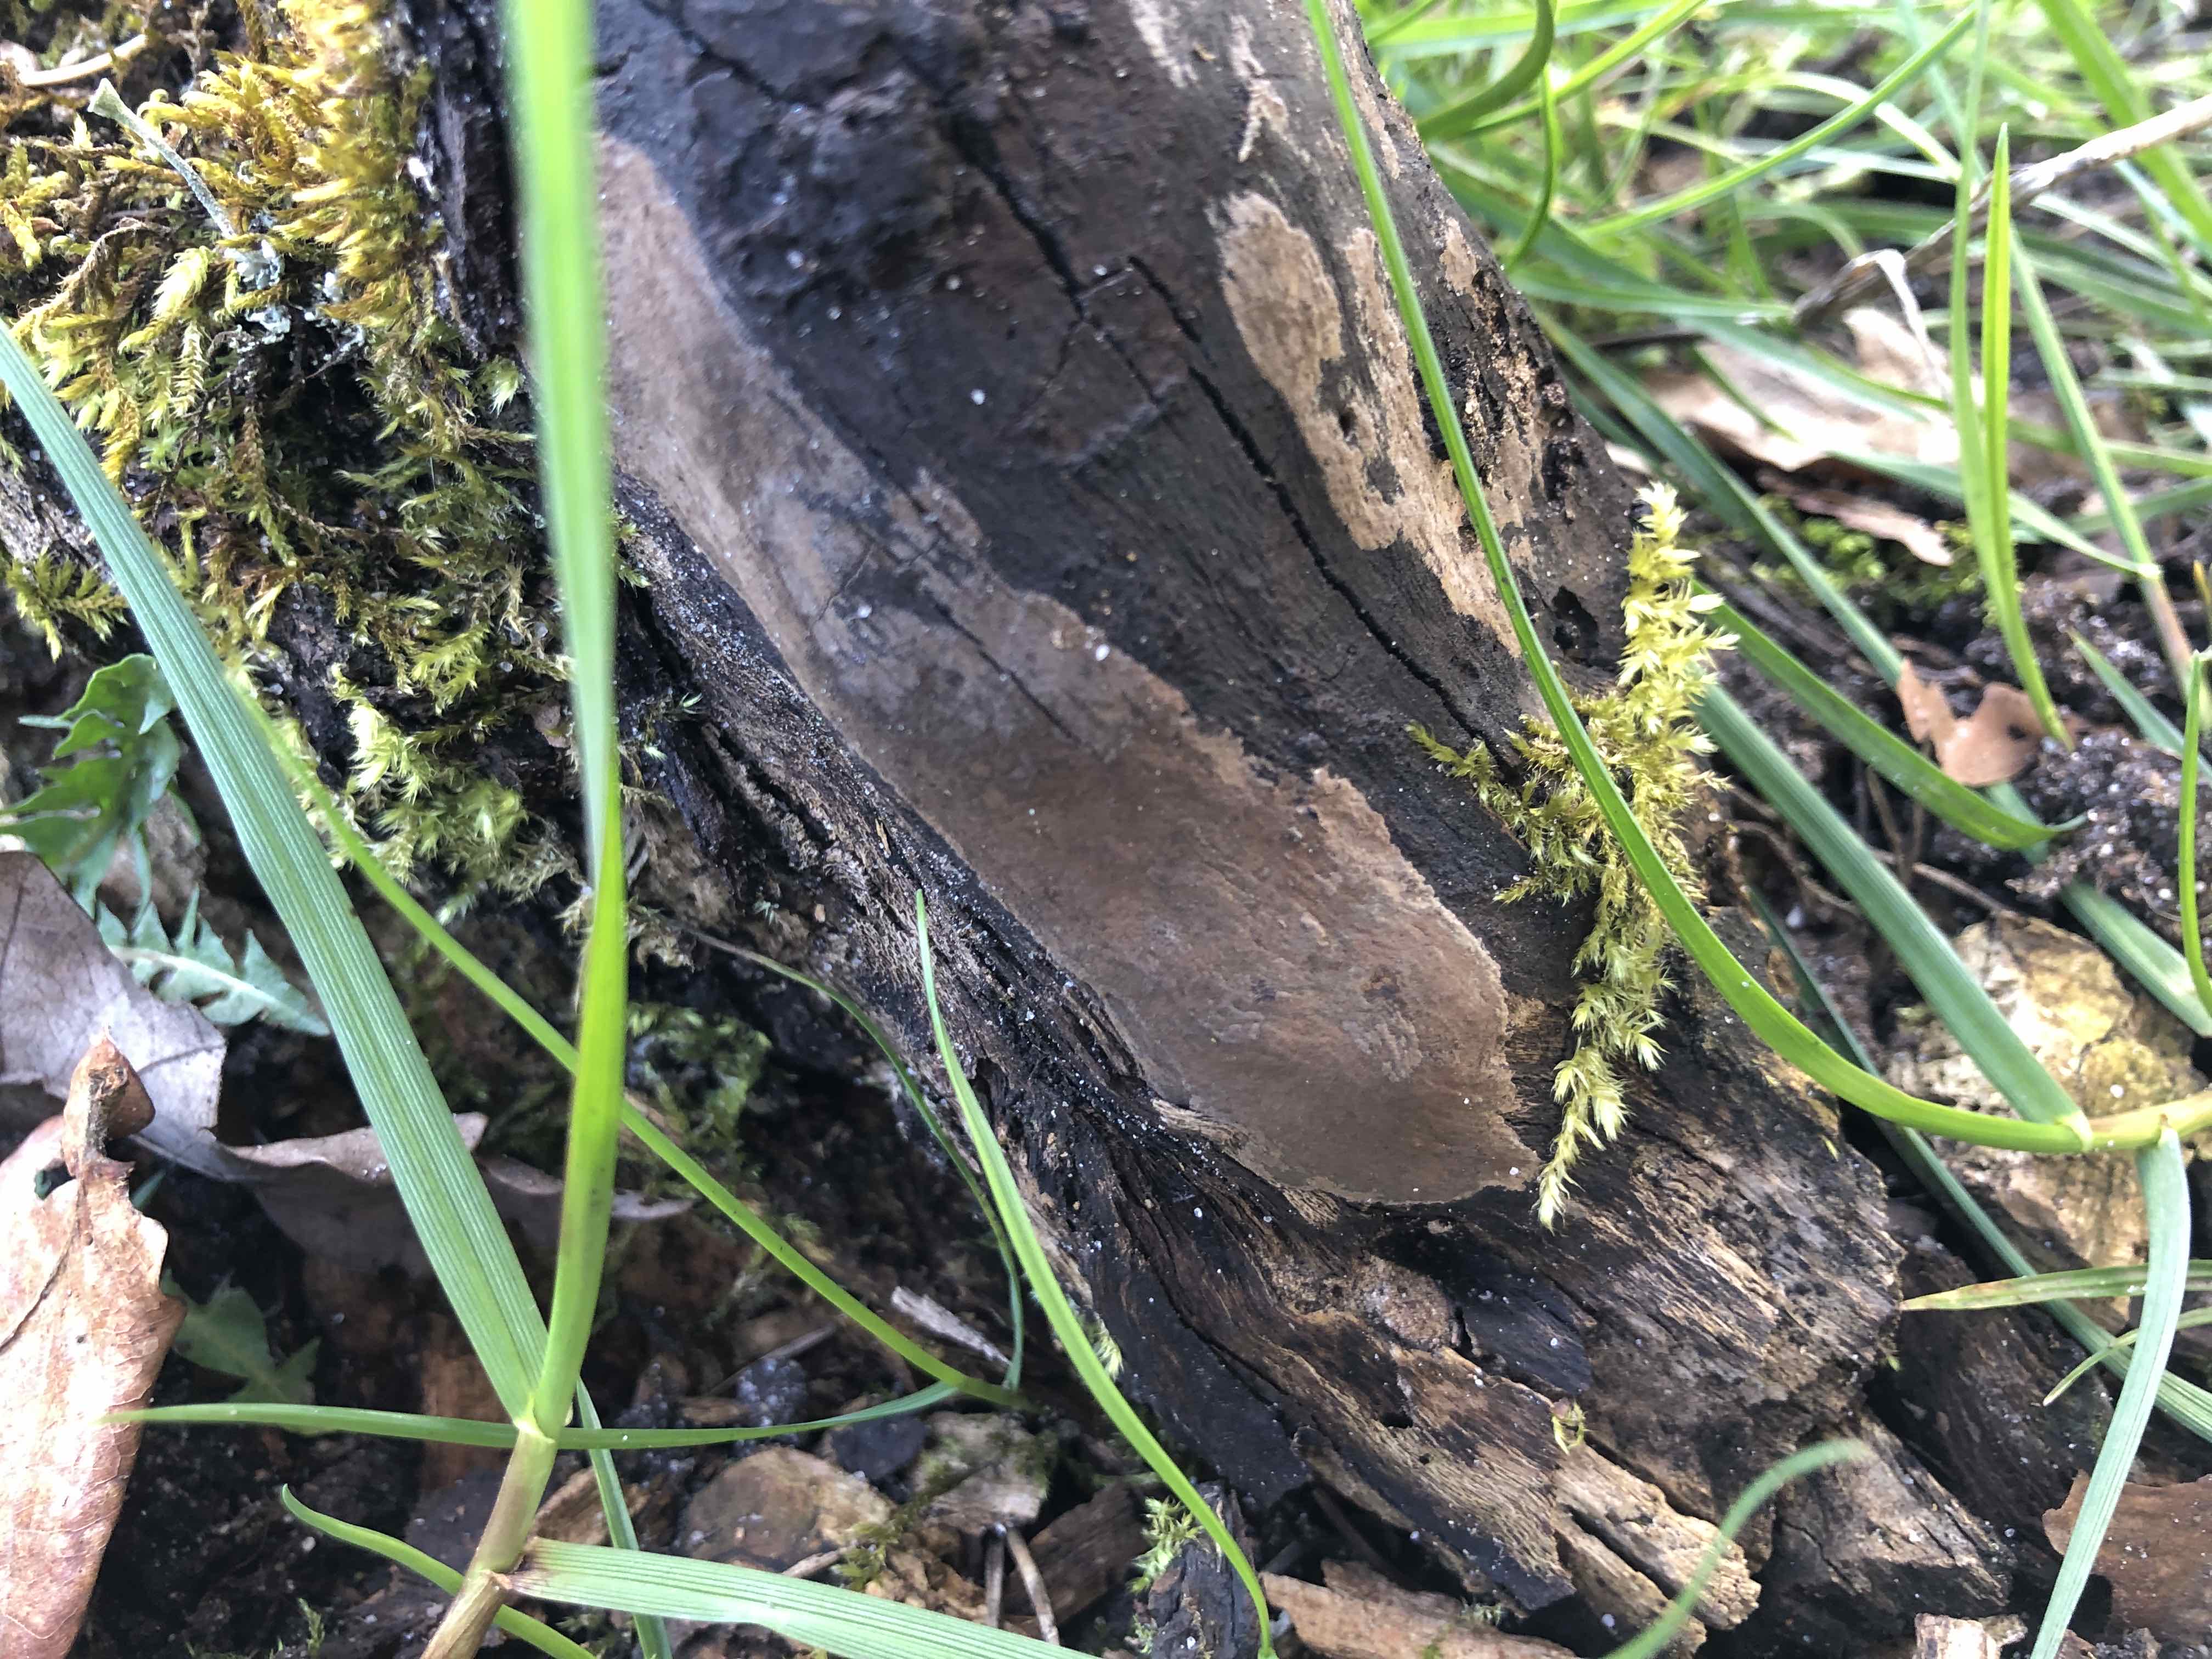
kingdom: Fungi
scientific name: Fungi
